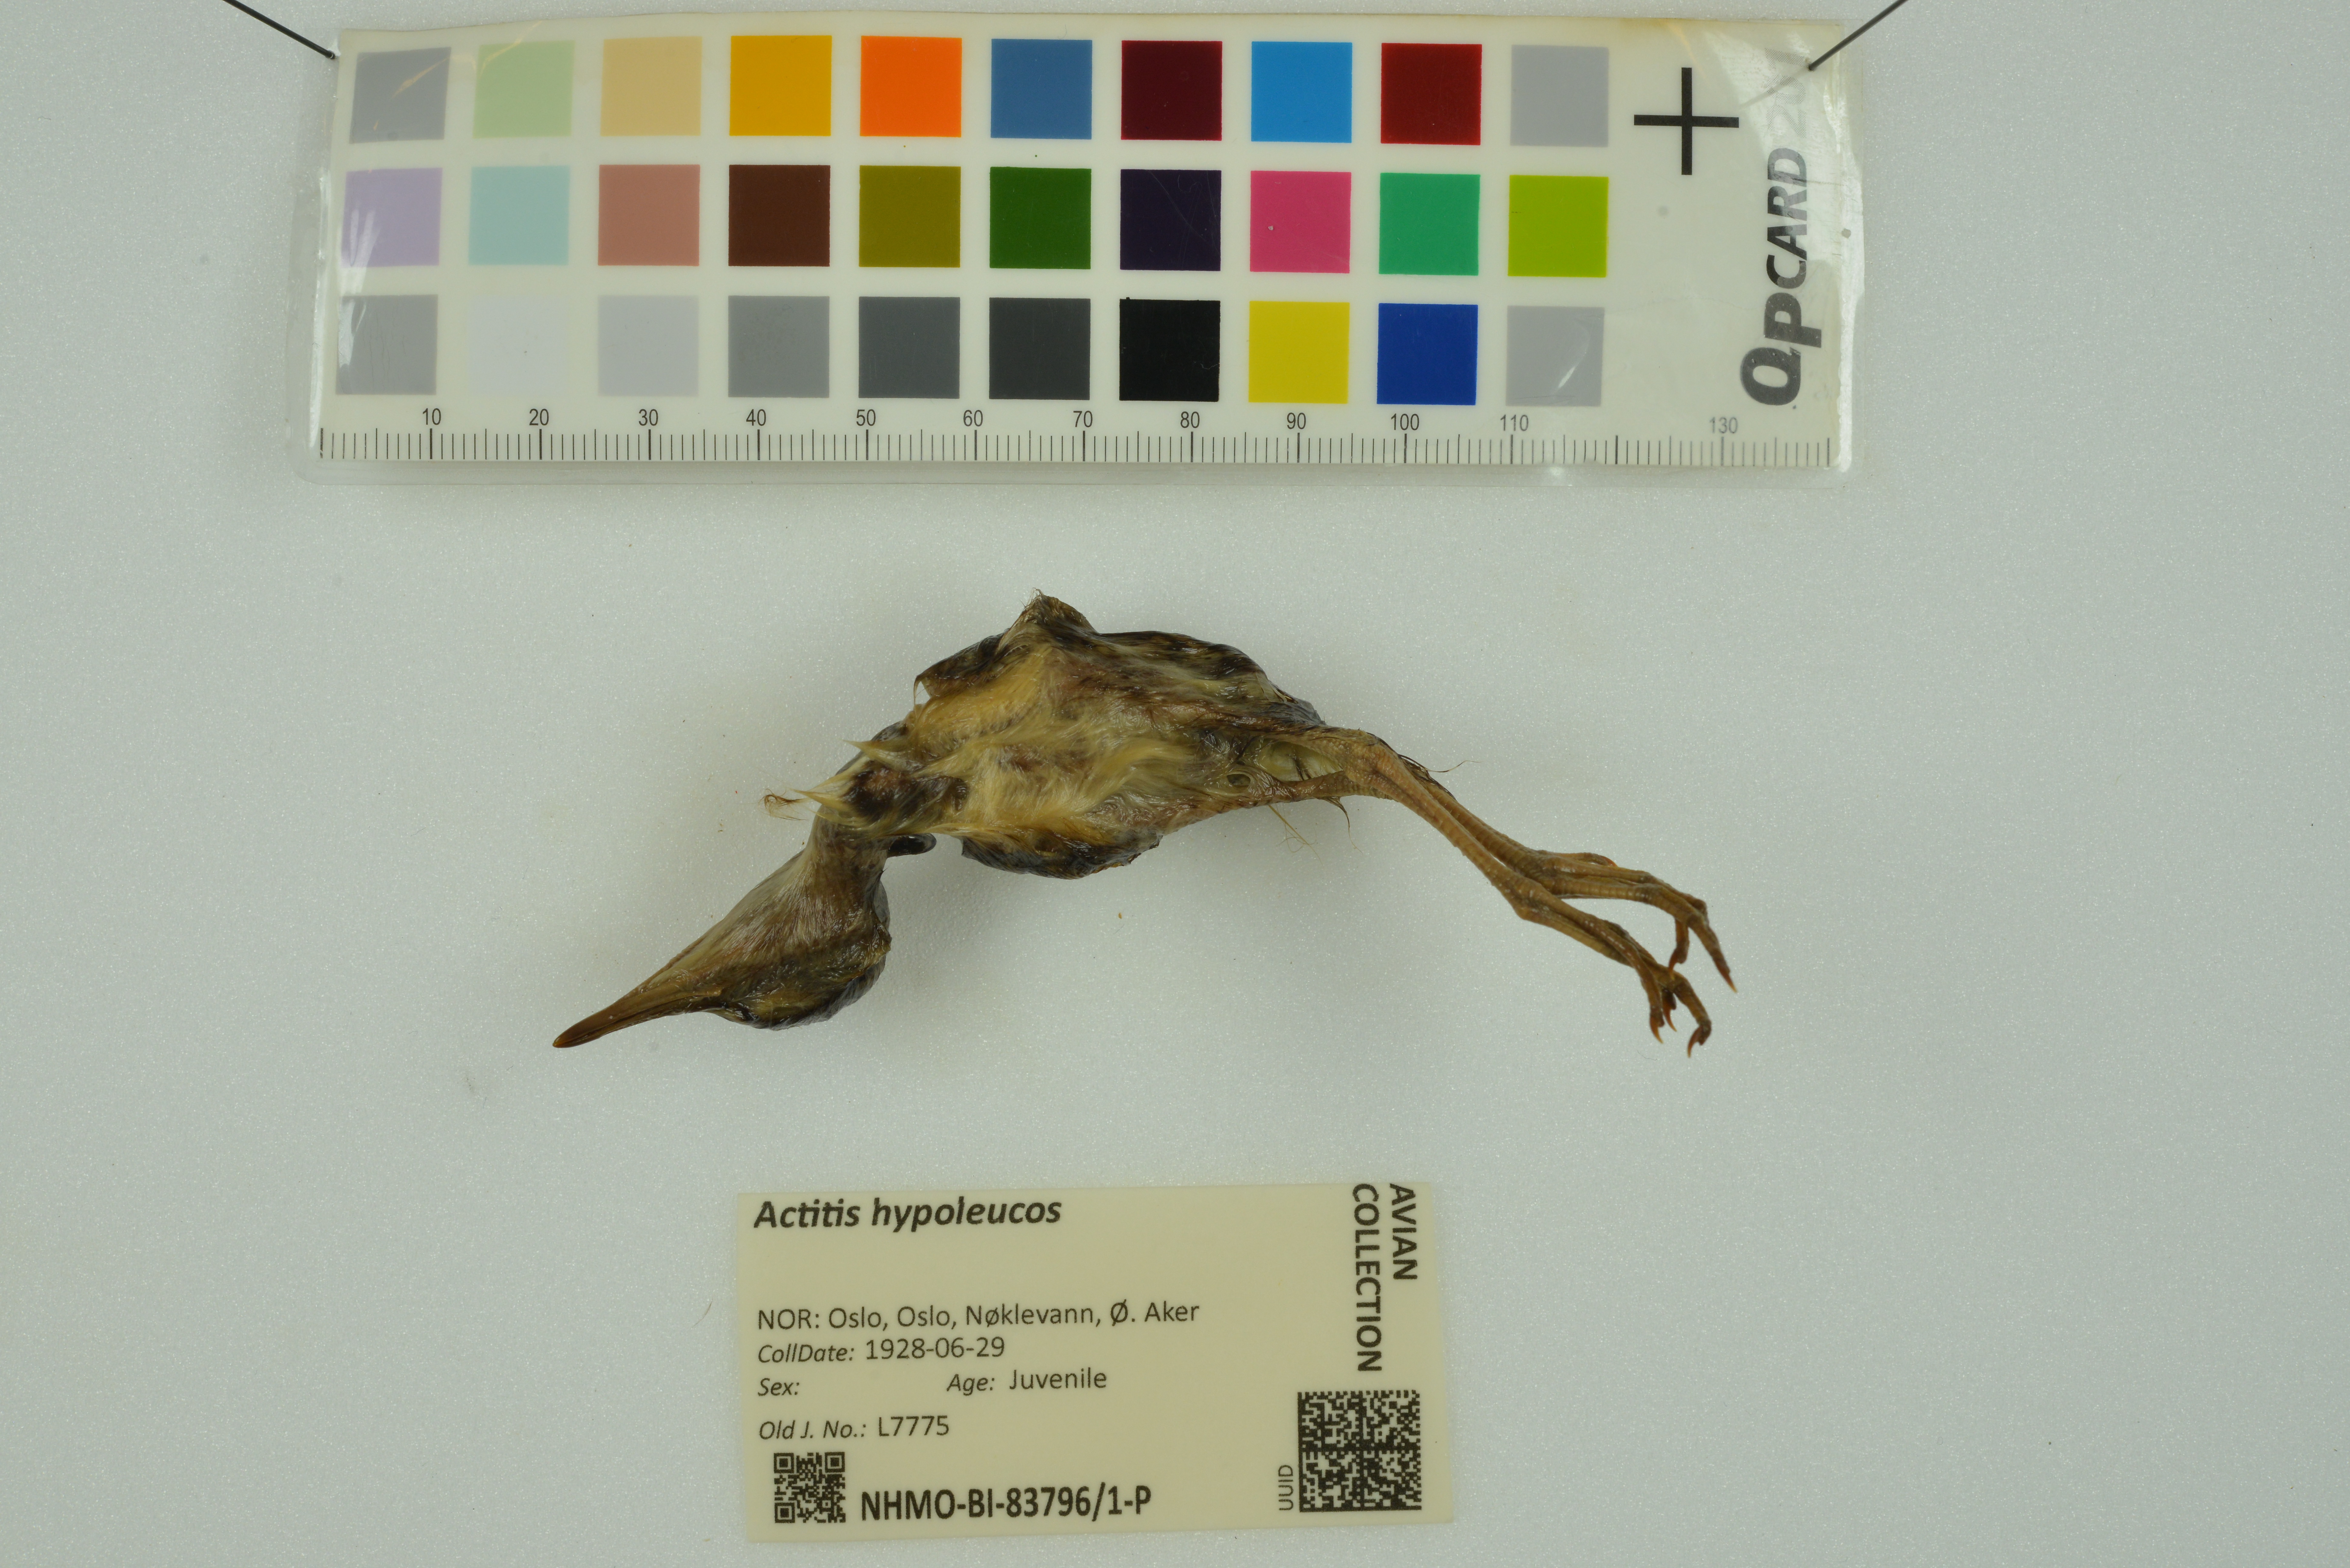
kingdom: Animalia
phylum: Chordata
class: Aves
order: Charadriiformes
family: Scolopacidae
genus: Actitis
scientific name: Actitis hypoleucos
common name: Common sandpiper
